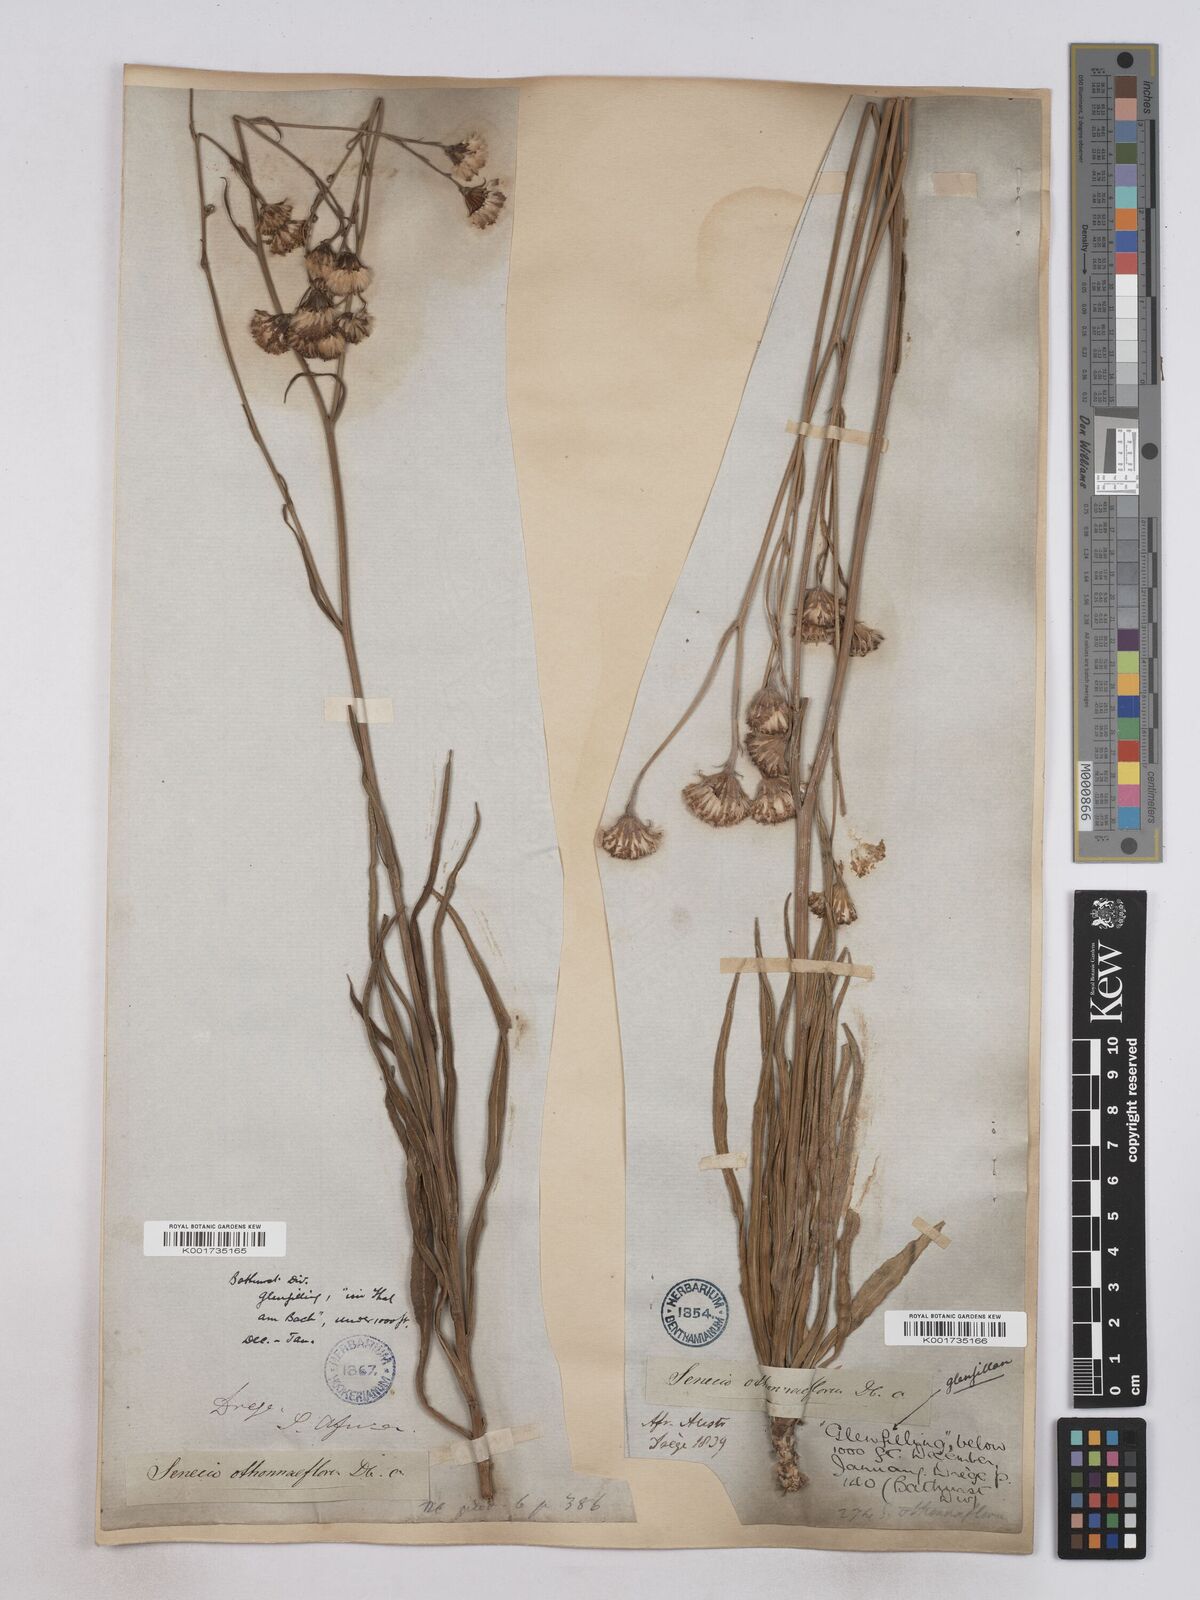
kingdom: Plantae
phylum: Tracheophyta
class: Magnoliopsida
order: Asterales
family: Asteraceae
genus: Senecio
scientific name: Senecio othonniflorus
